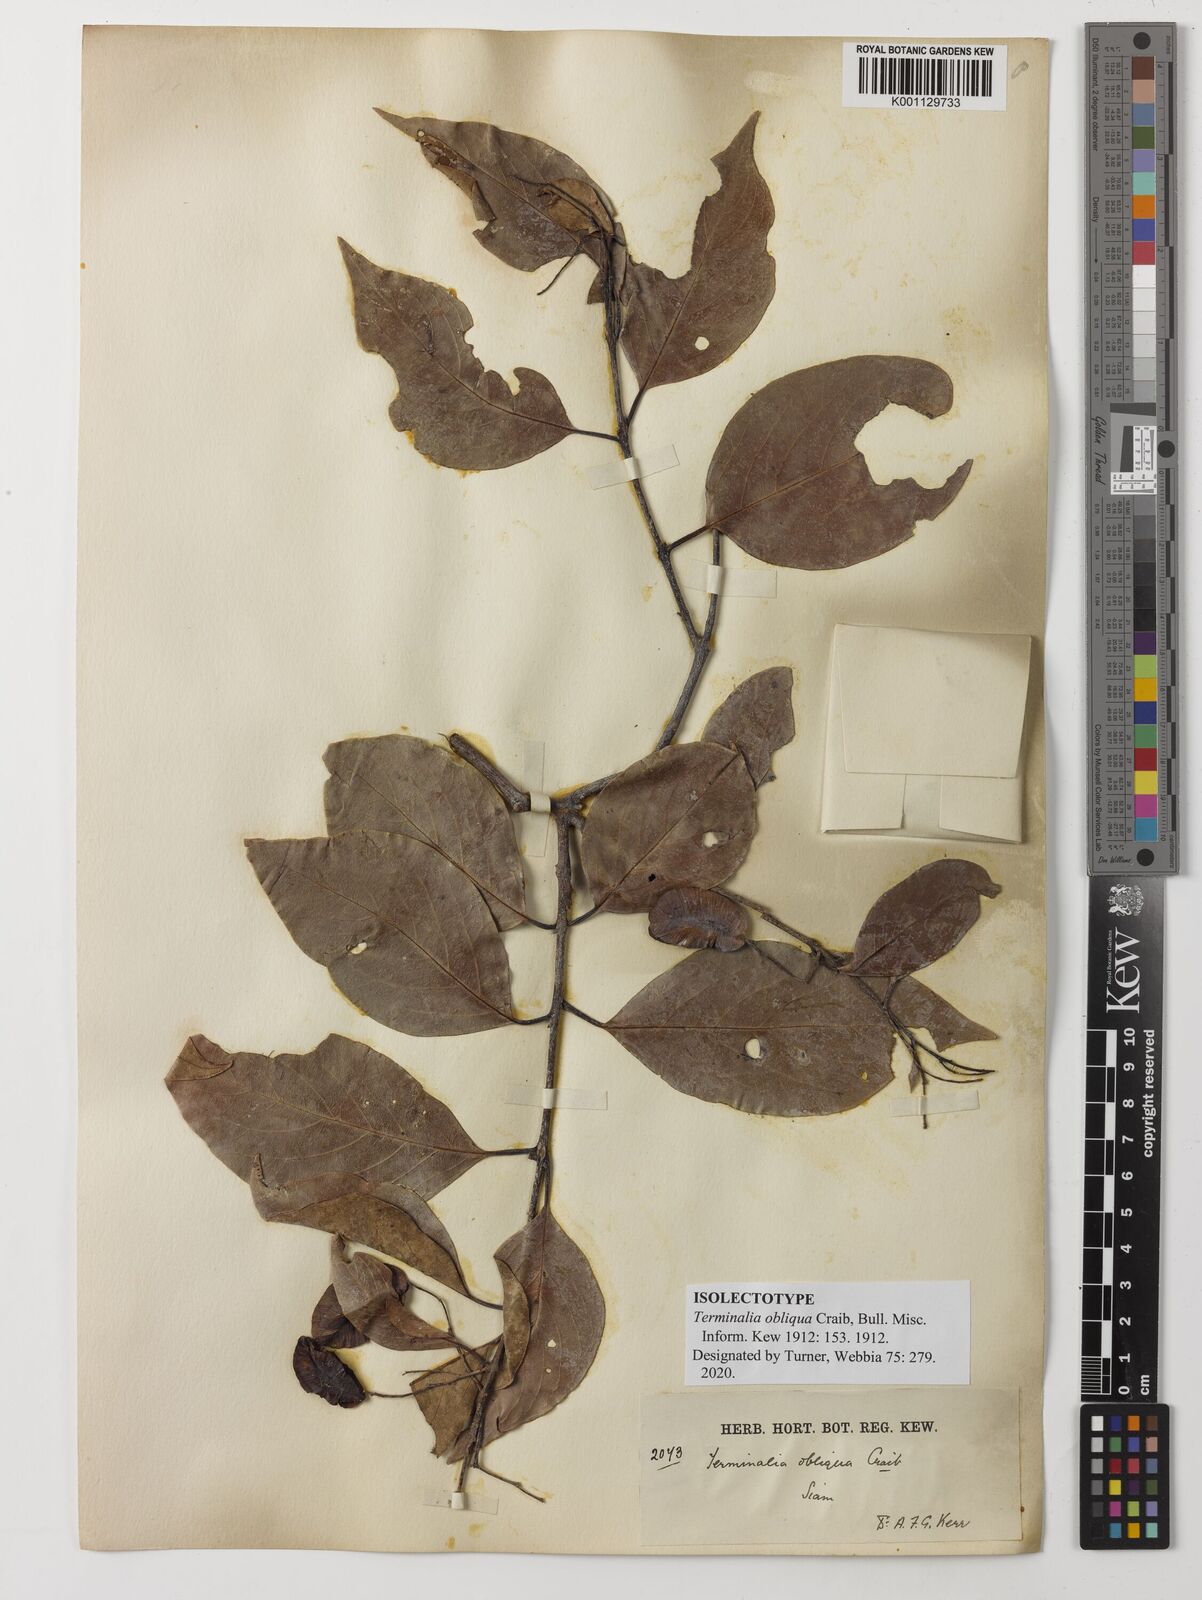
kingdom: Plantae
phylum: Tracheophyta
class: Magnoliopsida
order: Myrtales
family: Combretaceae
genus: Terminalia
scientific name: Terminalia triptera
